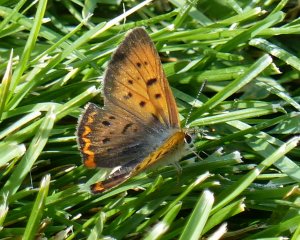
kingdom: Animalia
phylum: Arthropoda
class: Insecta
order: Lepidoptera
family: Sesiidae
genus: Sesia
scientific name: Sesia Lycaena helloides
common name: Purplish Copper
